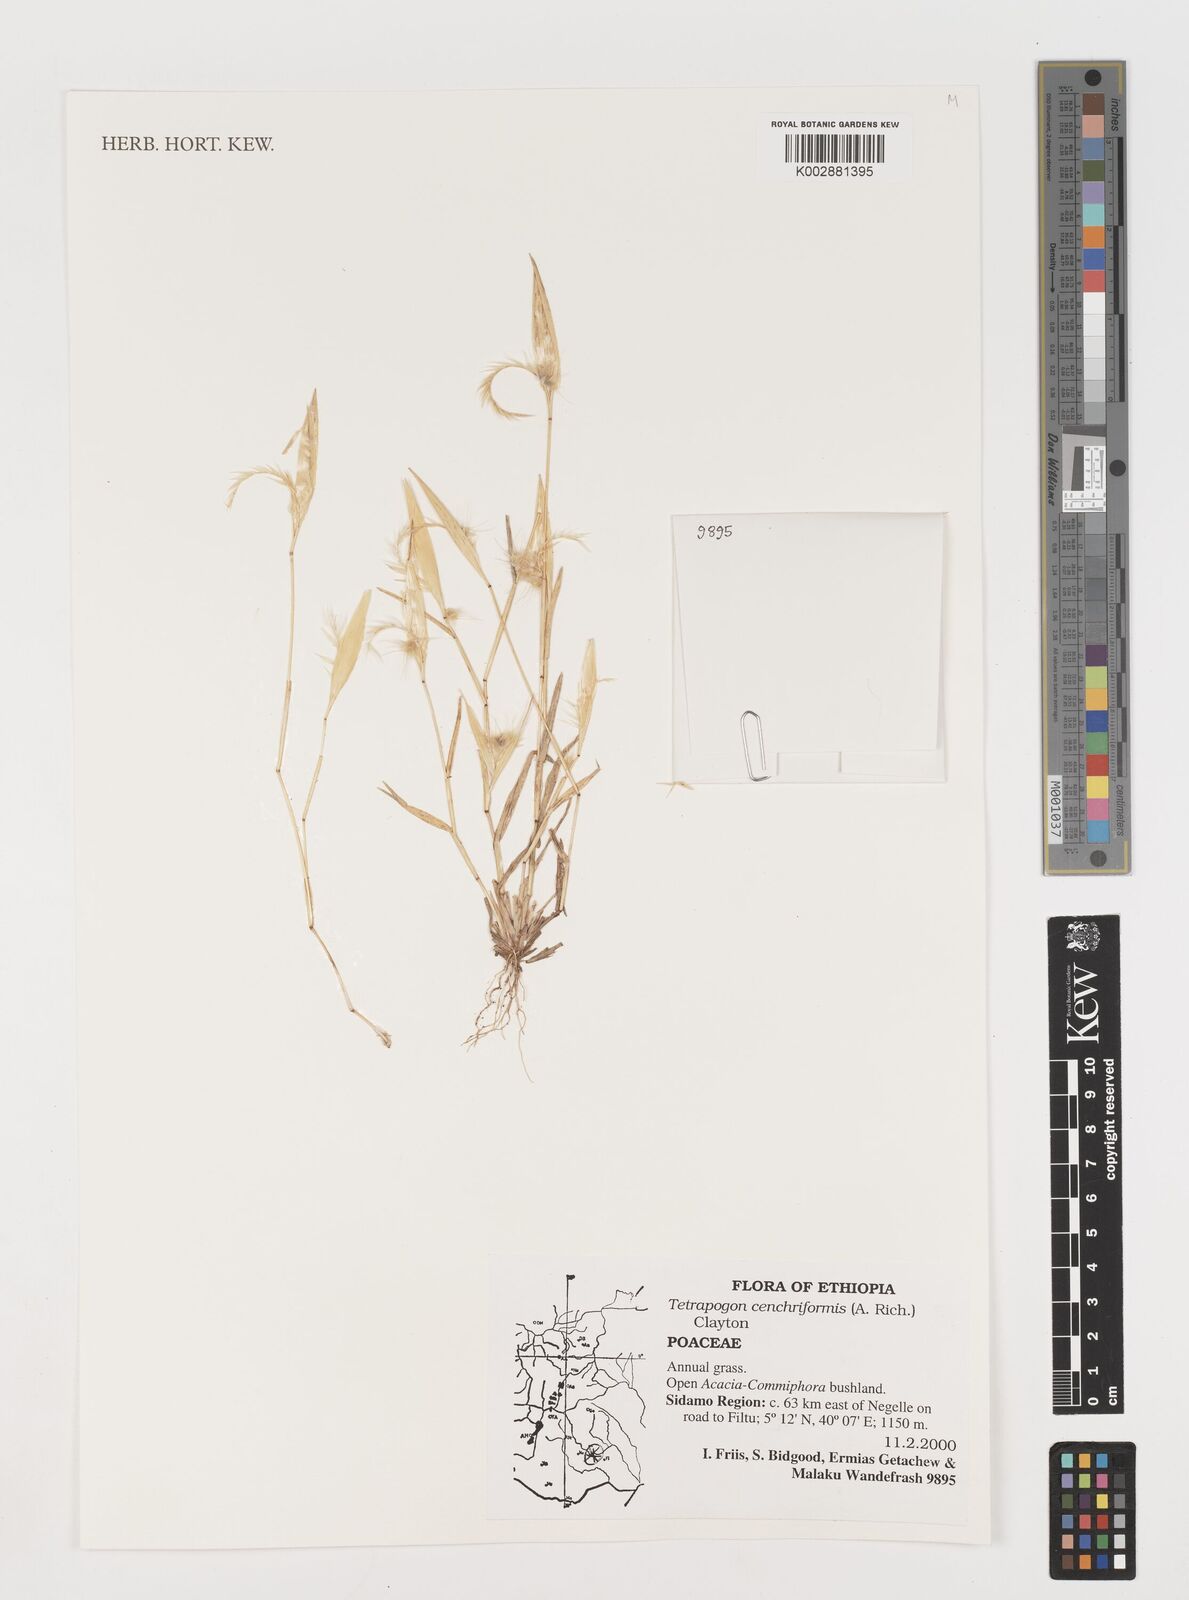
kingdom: Plantae
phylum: Tracheophyta
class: Liliopsida
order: Poales
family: Poaceae
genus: Tetrapogon
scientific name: Tetrapogon cenchriformis
